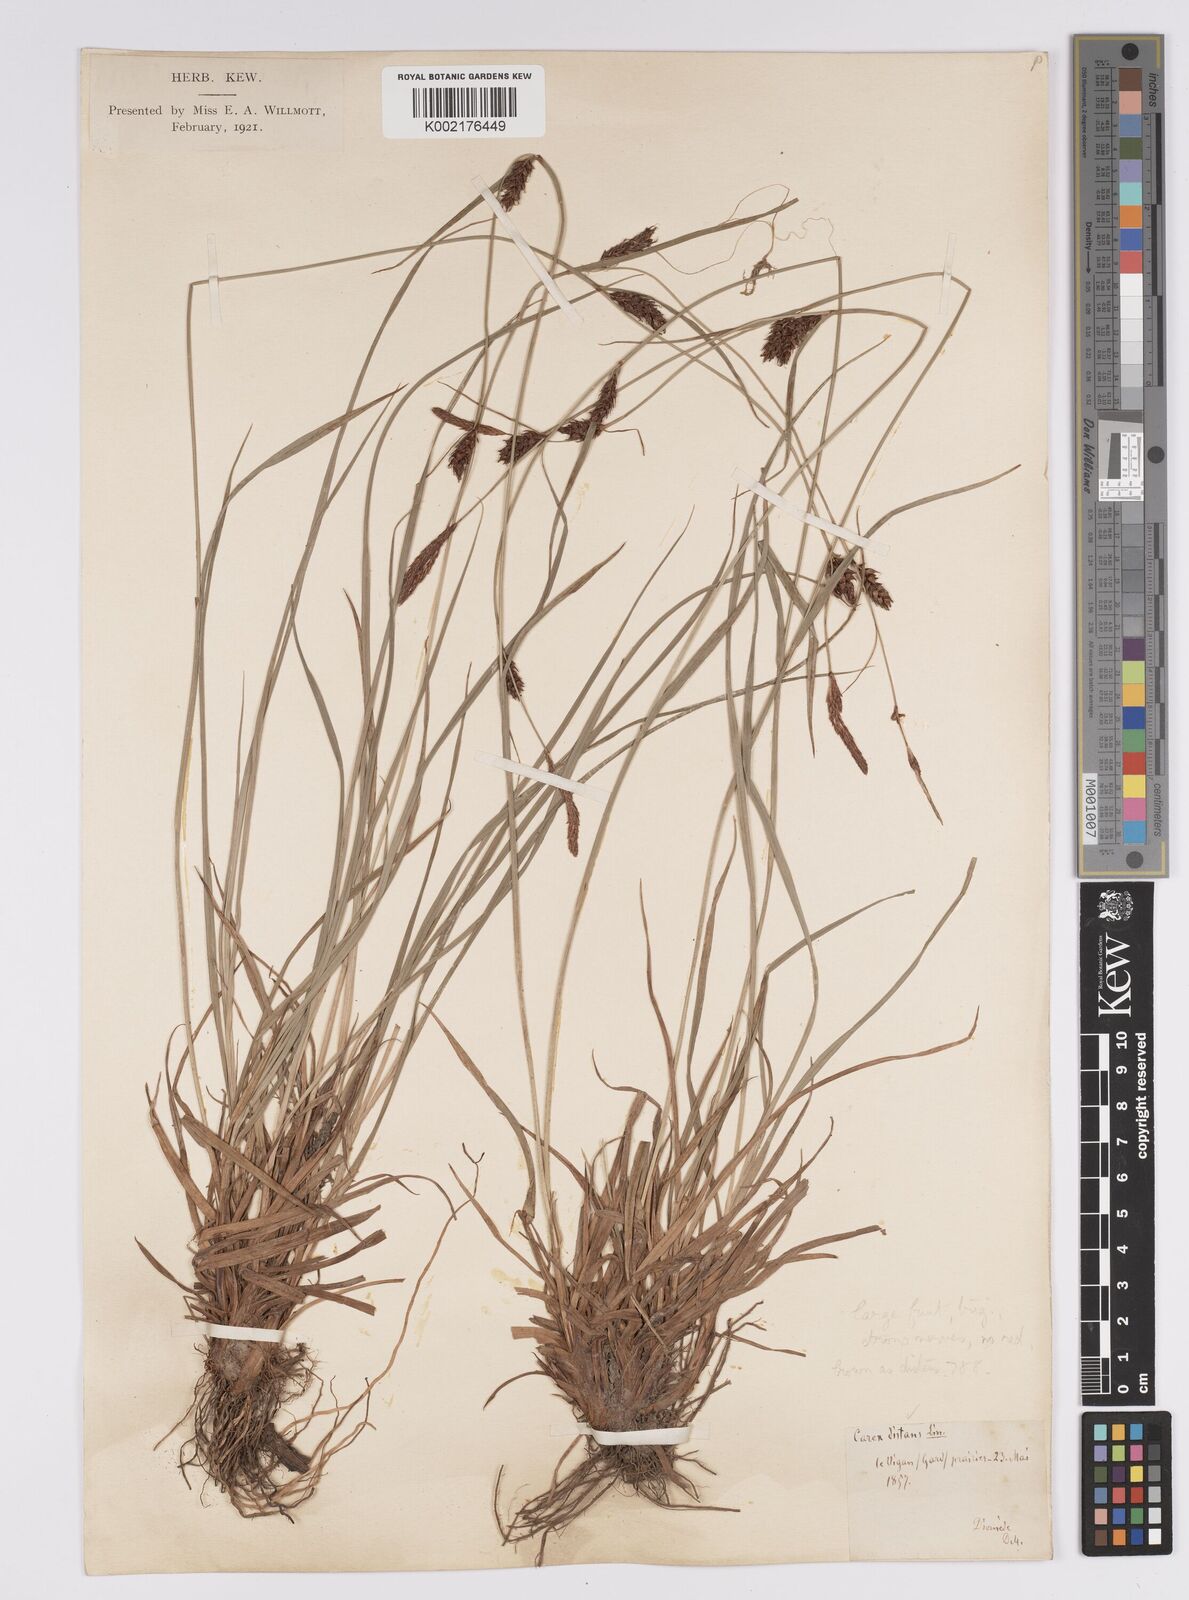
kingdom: Plantae
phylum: Tracheophyta
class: Liliopsida
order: Poales
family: Cyperaceae
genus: Carex
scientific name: Carex distans
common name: Distant sedge
